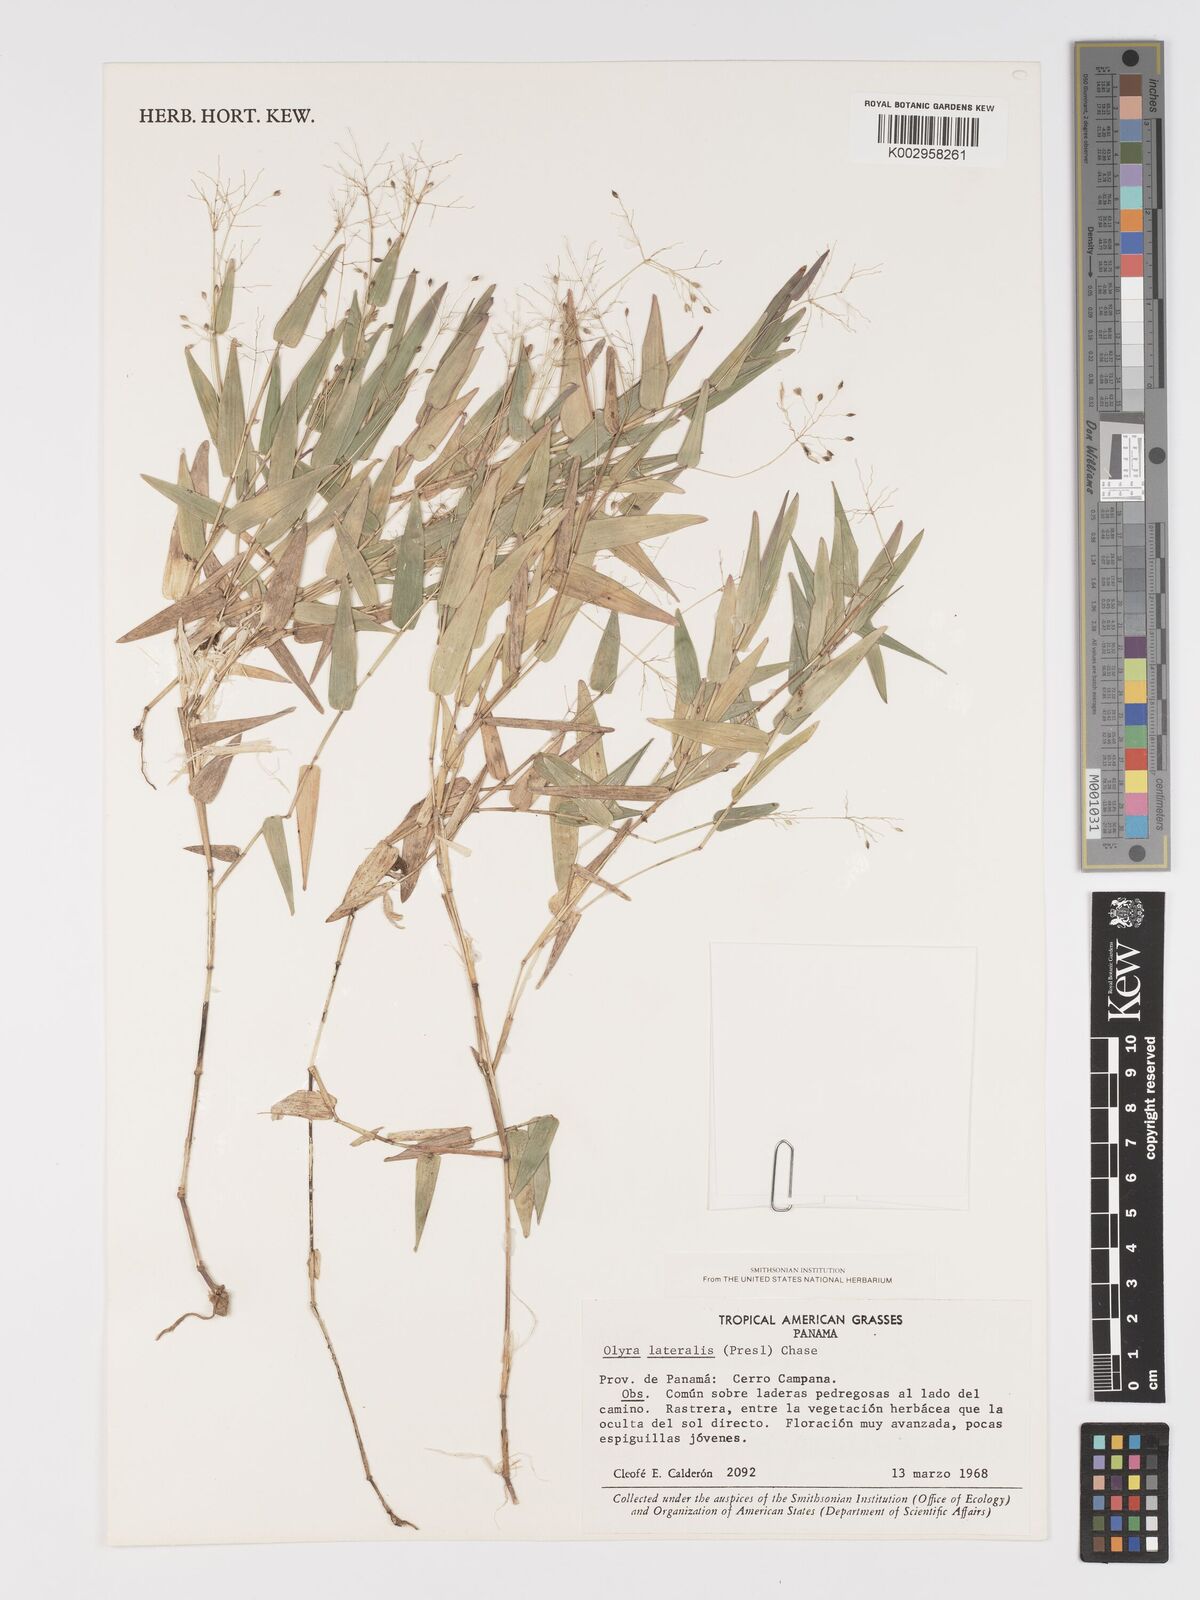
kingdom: Plantae
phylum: Tracheophyta
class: Liliopsida
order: Poales
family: Poaceae
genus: Parodiolyra
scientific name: Parodiolyra lateralis
